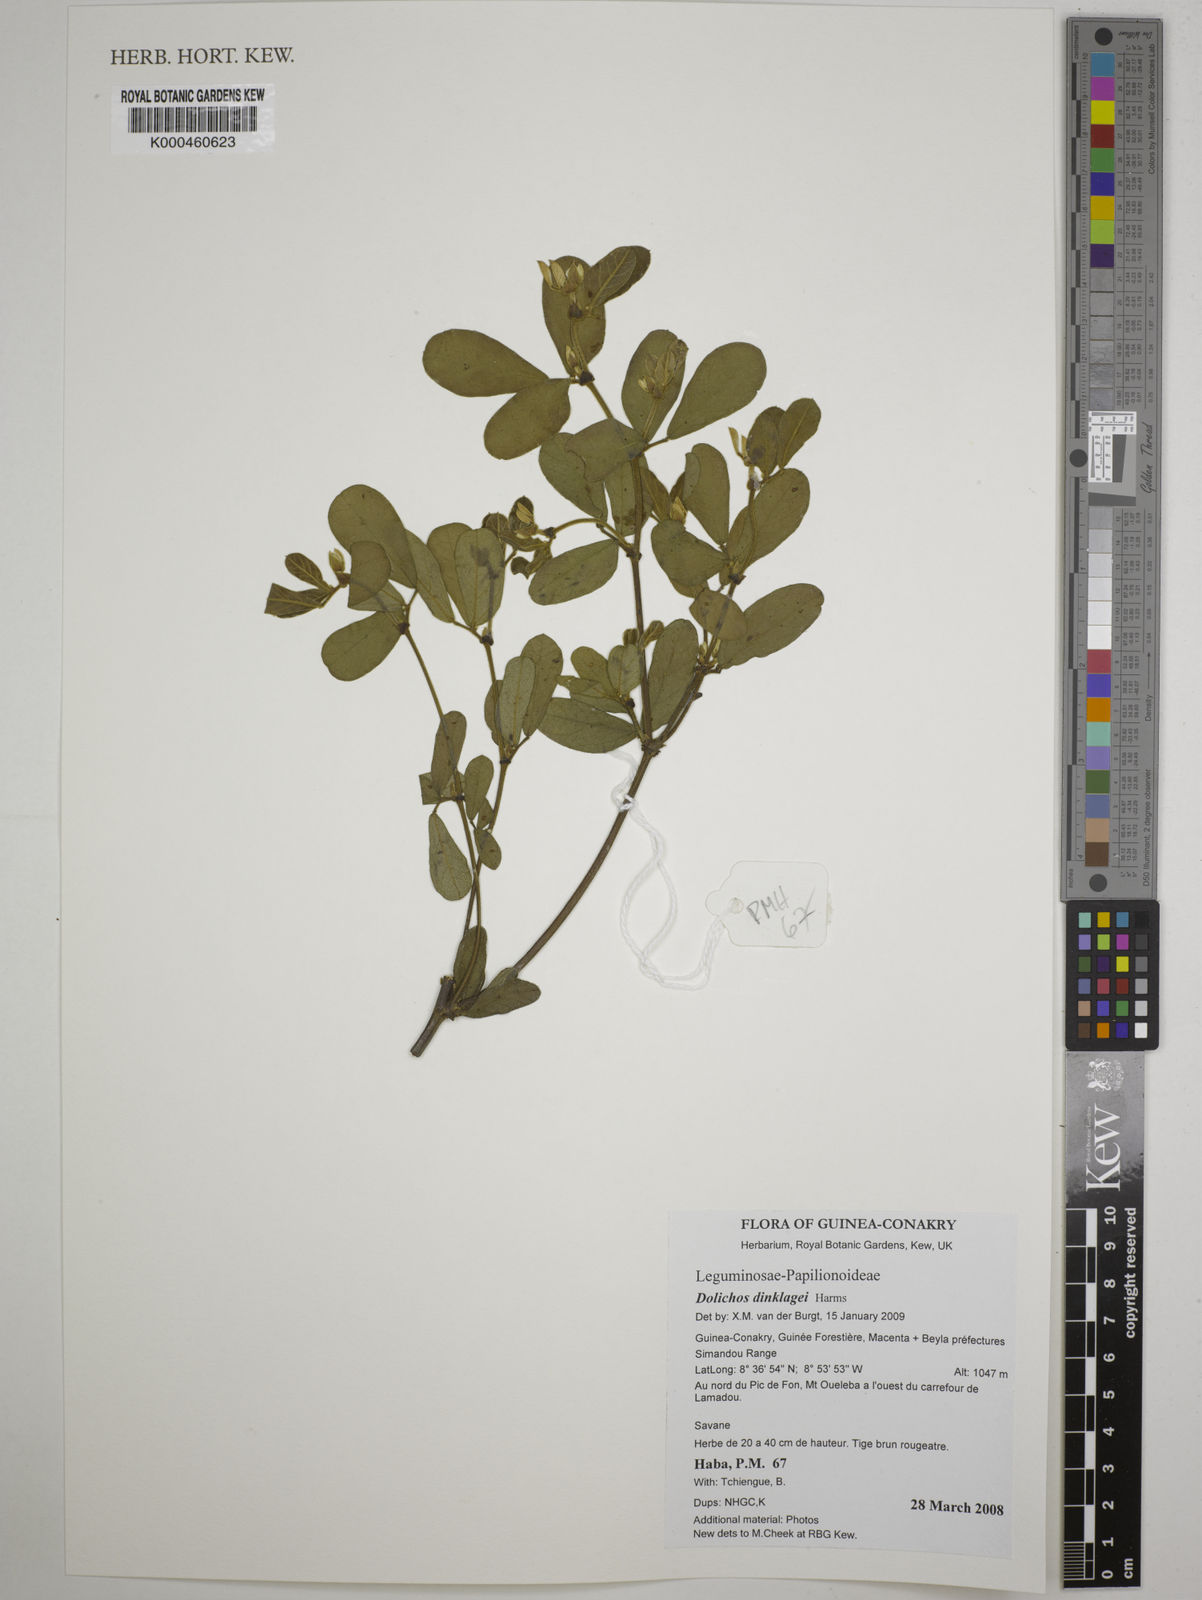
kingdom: Plantae
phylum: Tracheophyta
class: Magnoliopsida
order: Fabales
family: Fabaceae
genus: Dolichos
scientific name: Dolichos dinklagei
